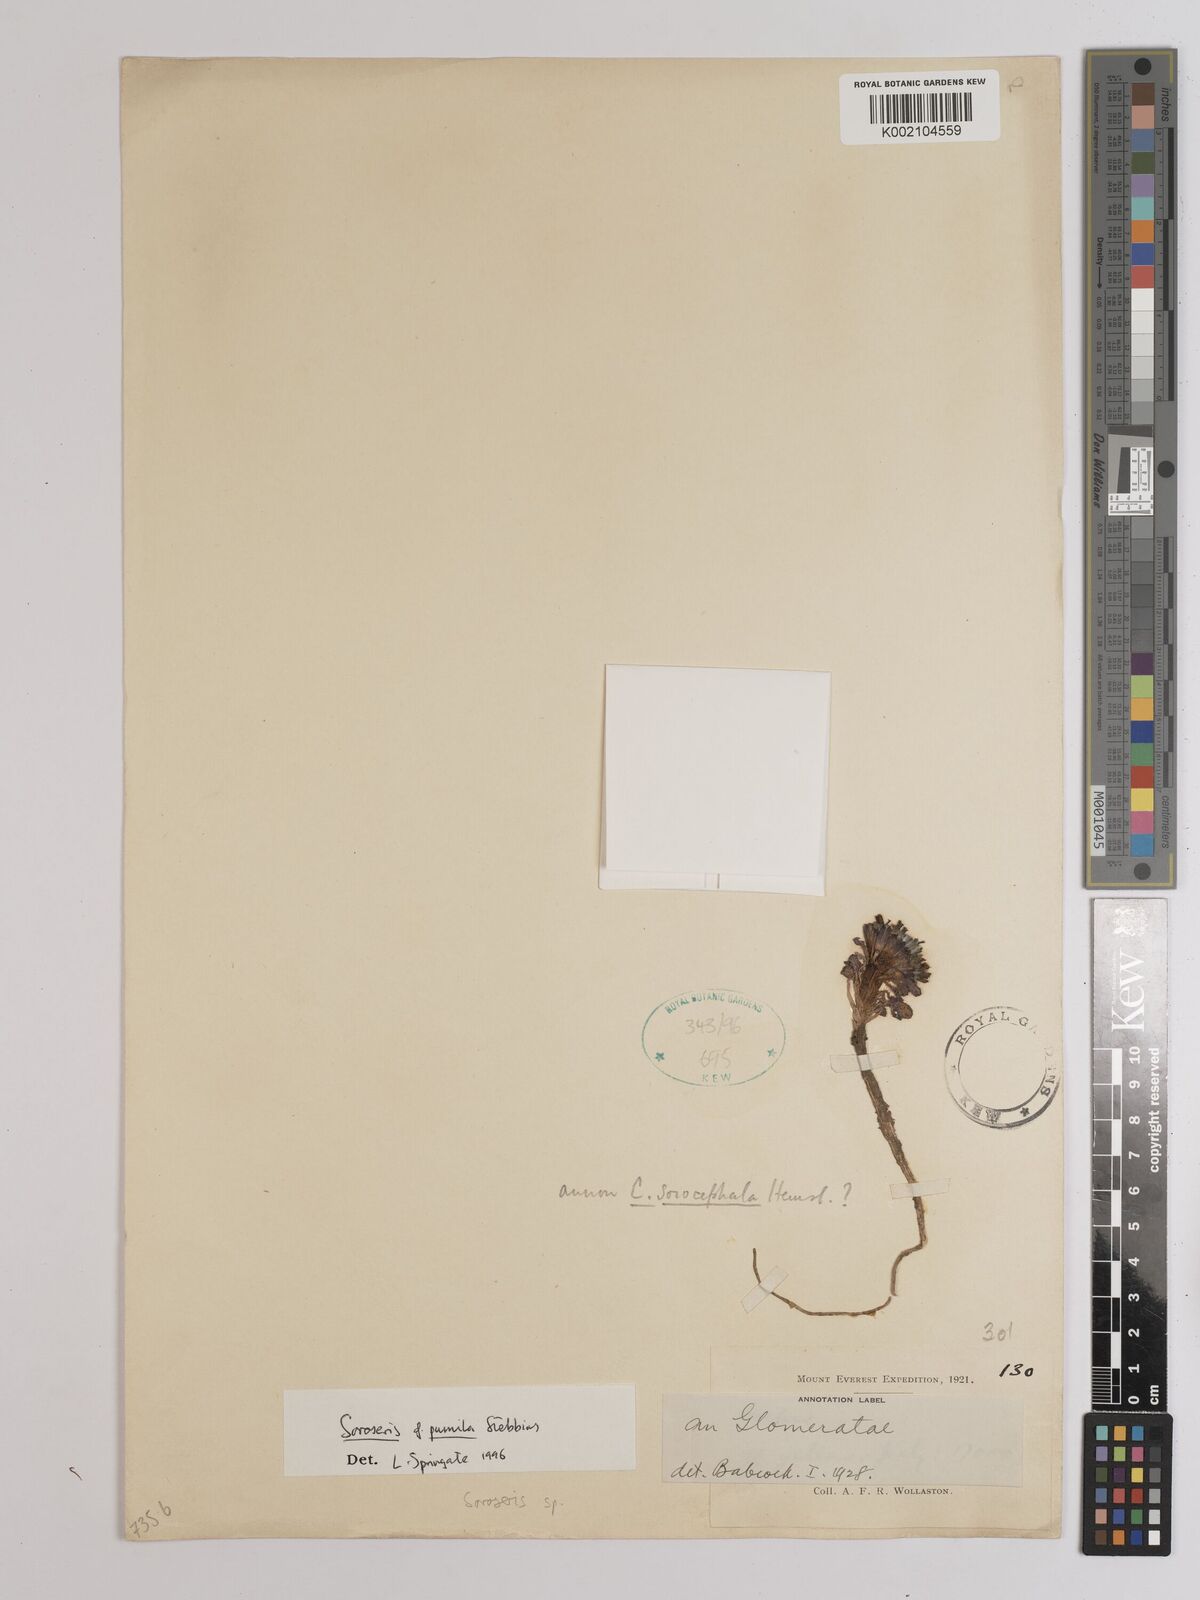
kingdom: Plantae
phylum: Tracheophyta
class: Magnoliopsida
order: Asterales
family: Asteraceae
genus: Soroseris
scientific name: Soroseris pumila
